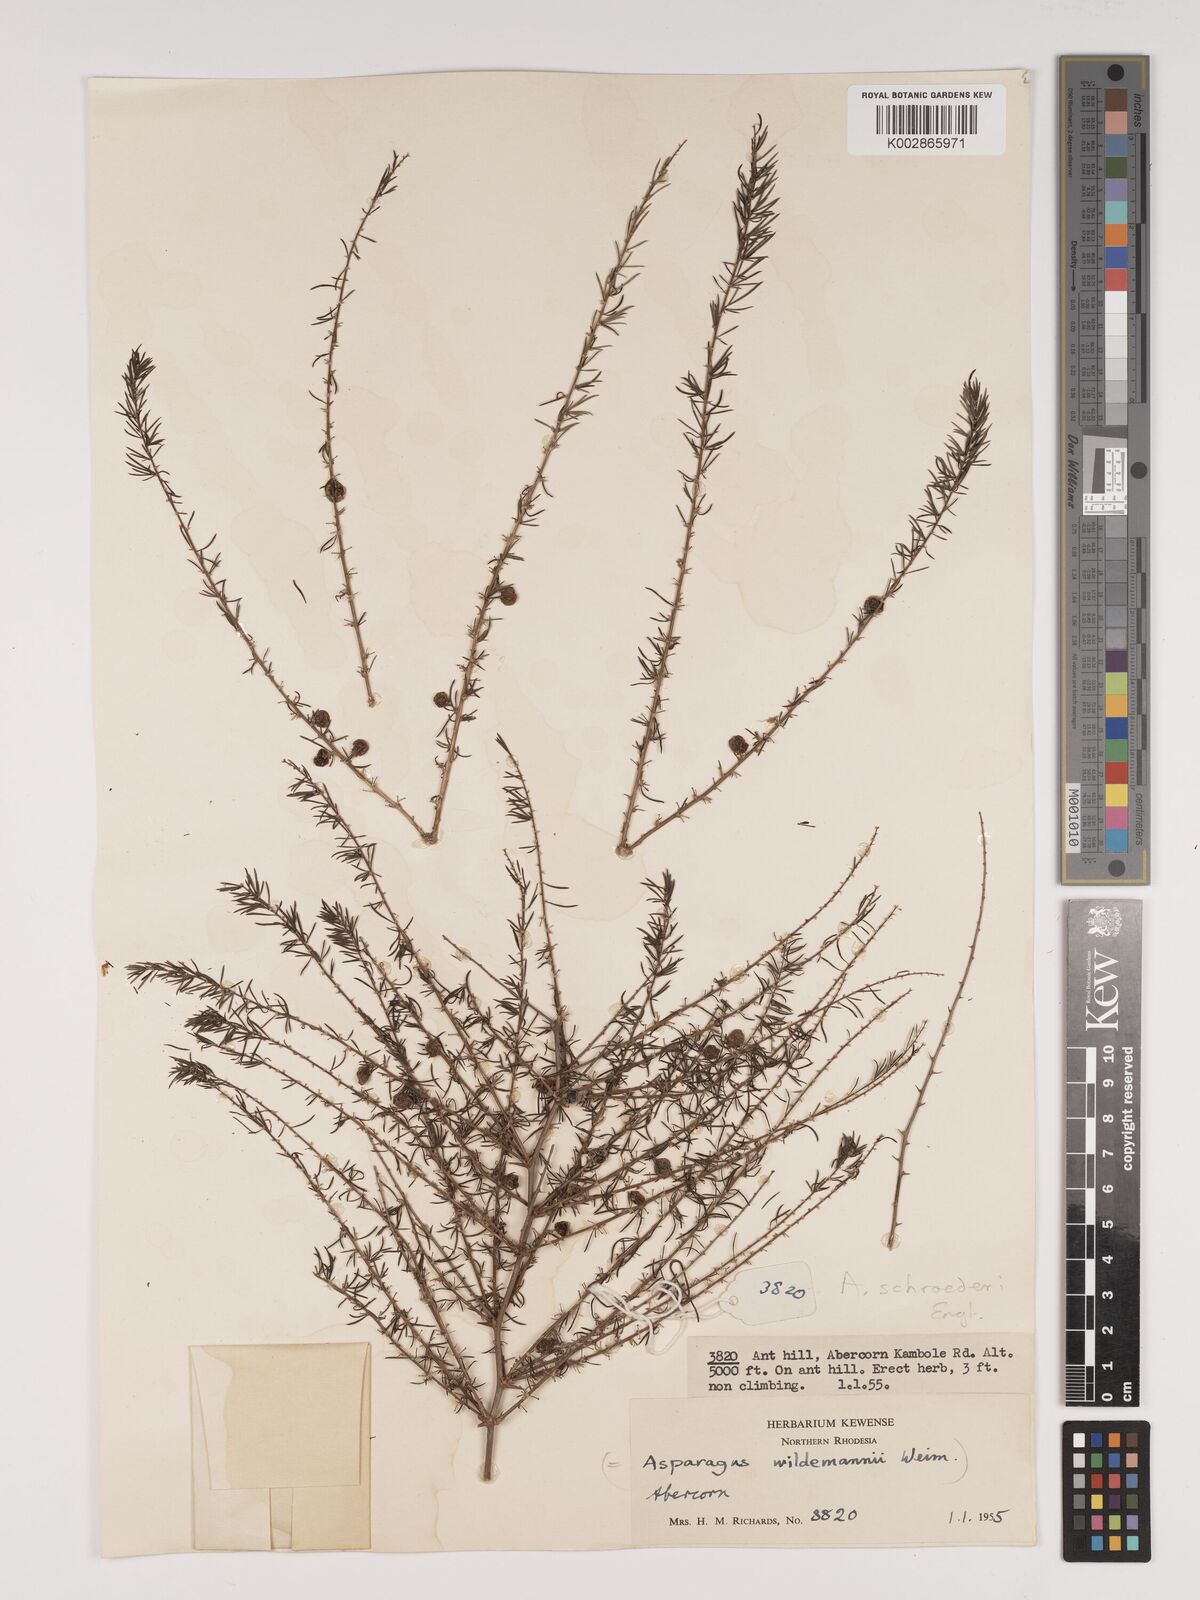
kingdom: Plantae
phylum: Tracheophyta
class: Liliopsida
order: Asparagales
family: Asparagaceae
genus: Asparagus
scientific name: Asparagus schroederi
